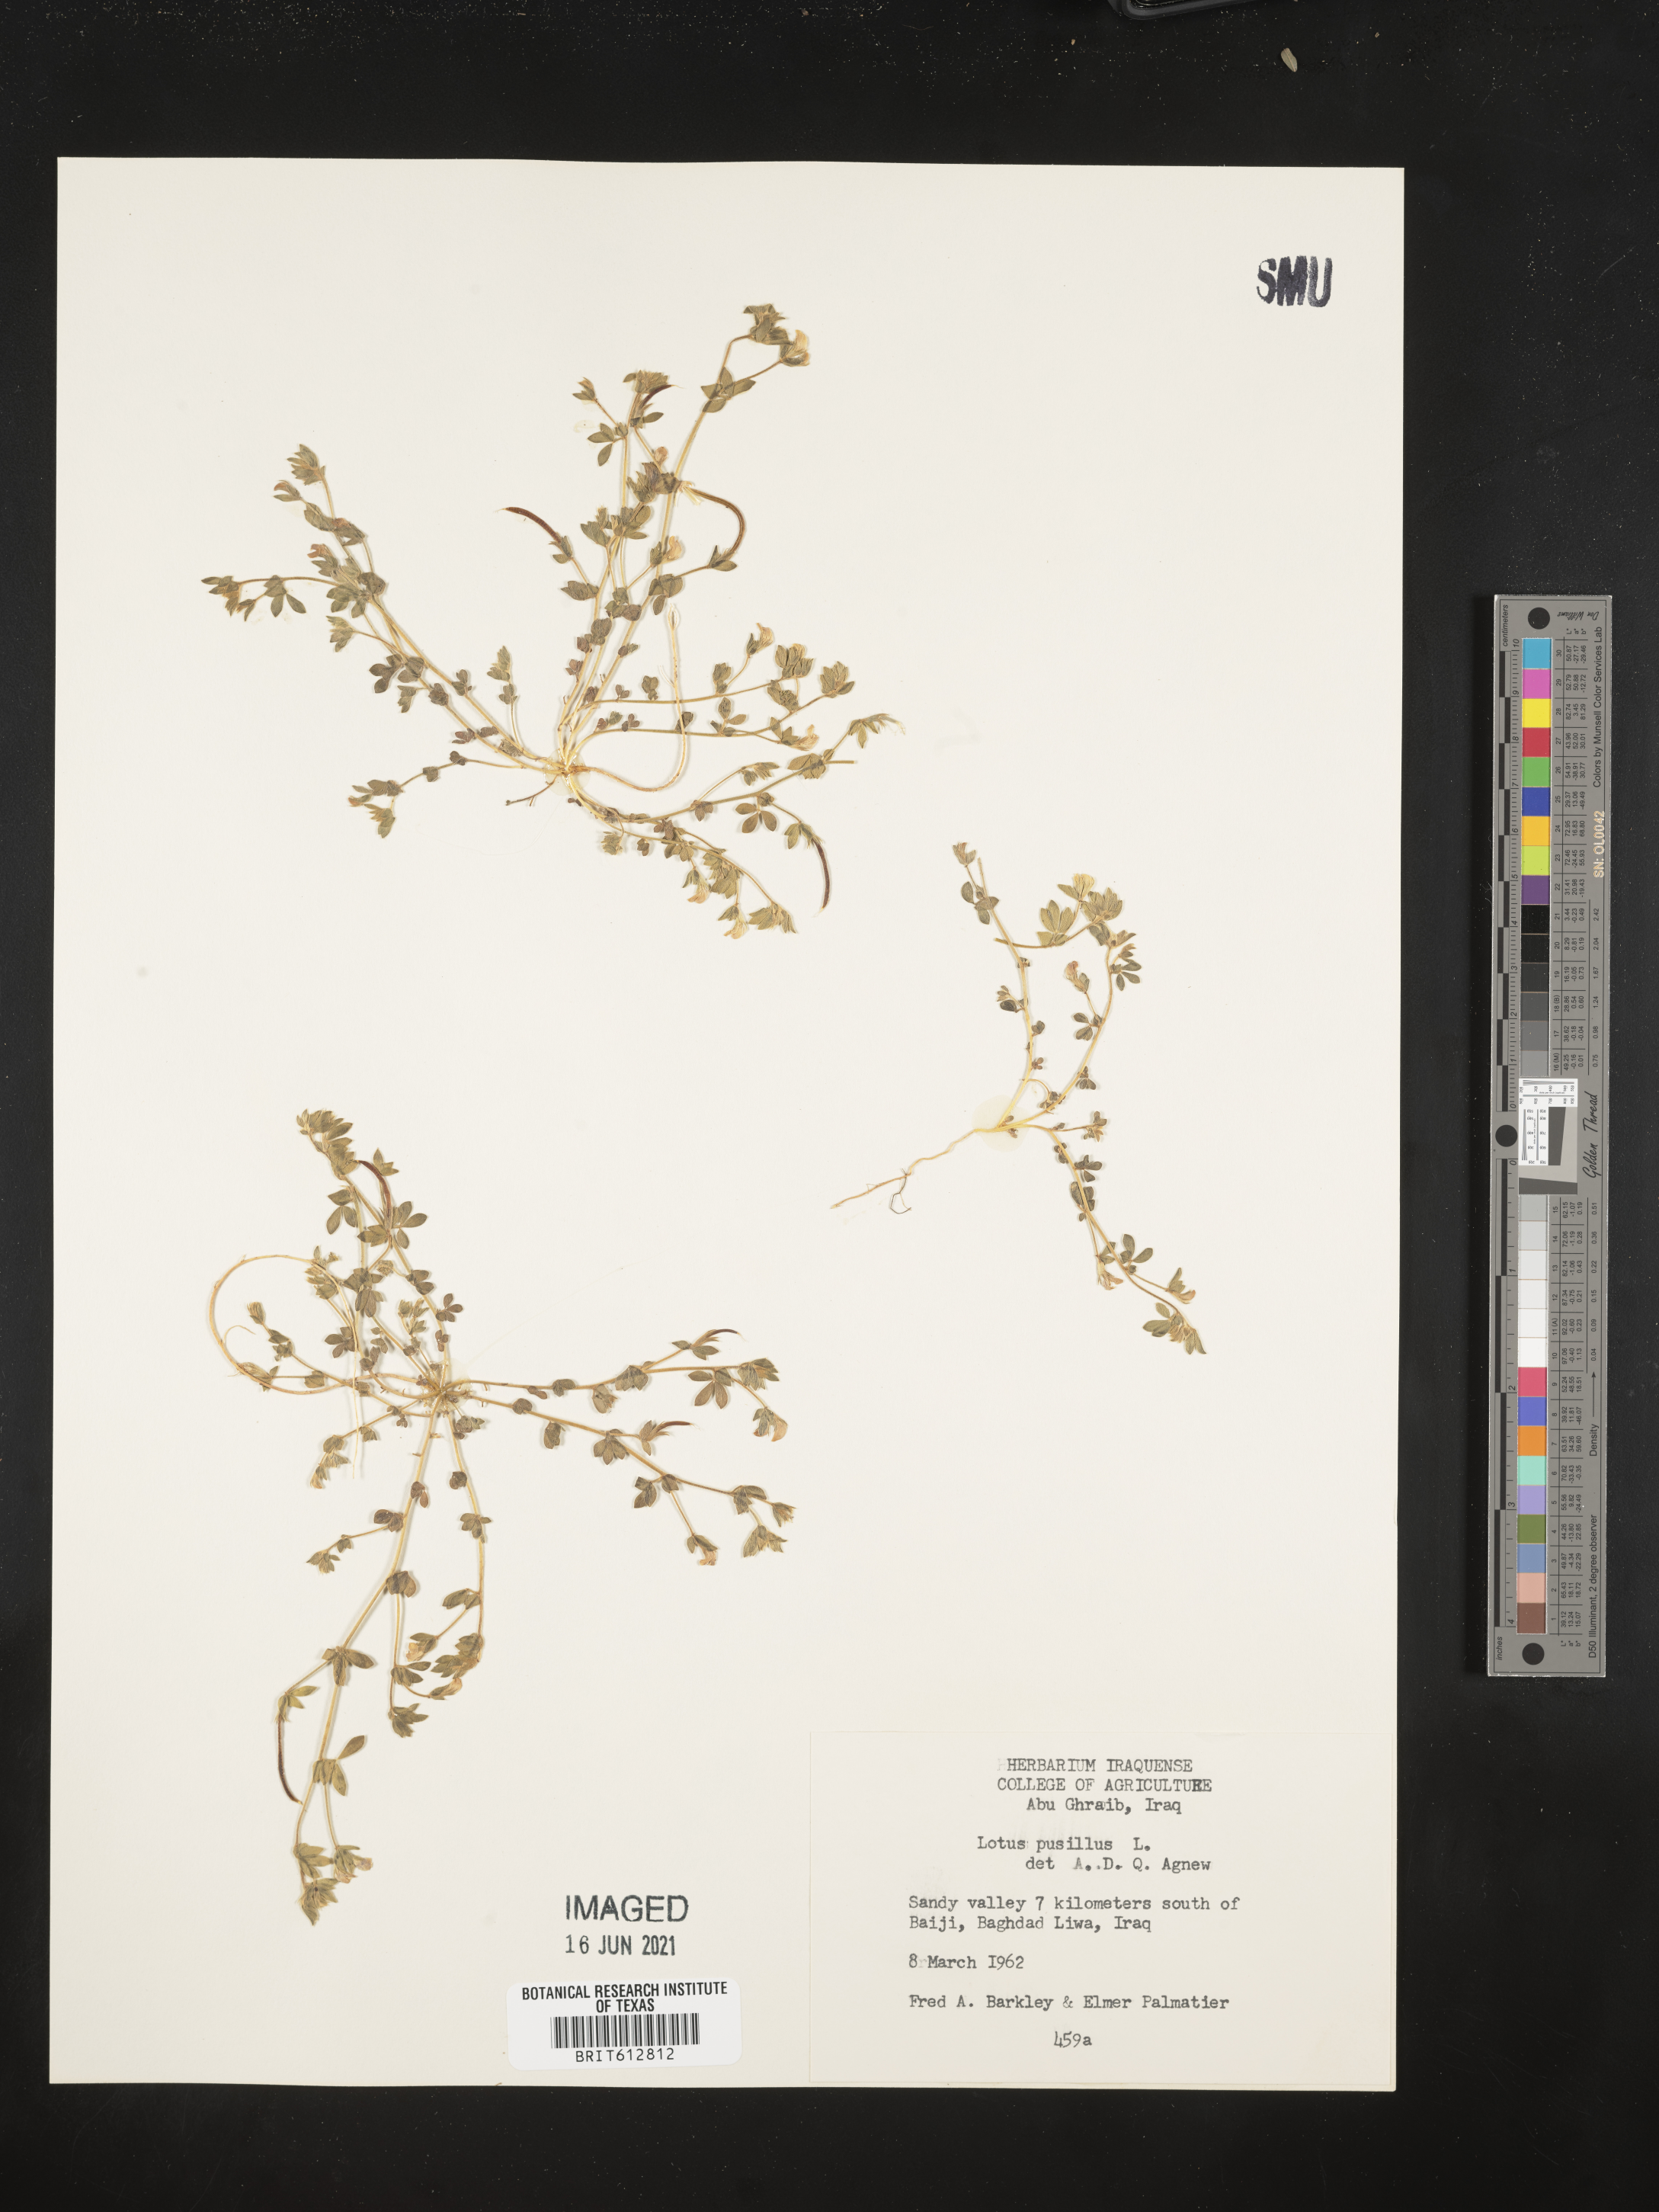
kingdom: Plantae
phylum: Tracheophyta
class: Magnoliopsida
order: Fabales
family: Fabaceae
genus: Lotus
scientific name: Lotus halophilus
